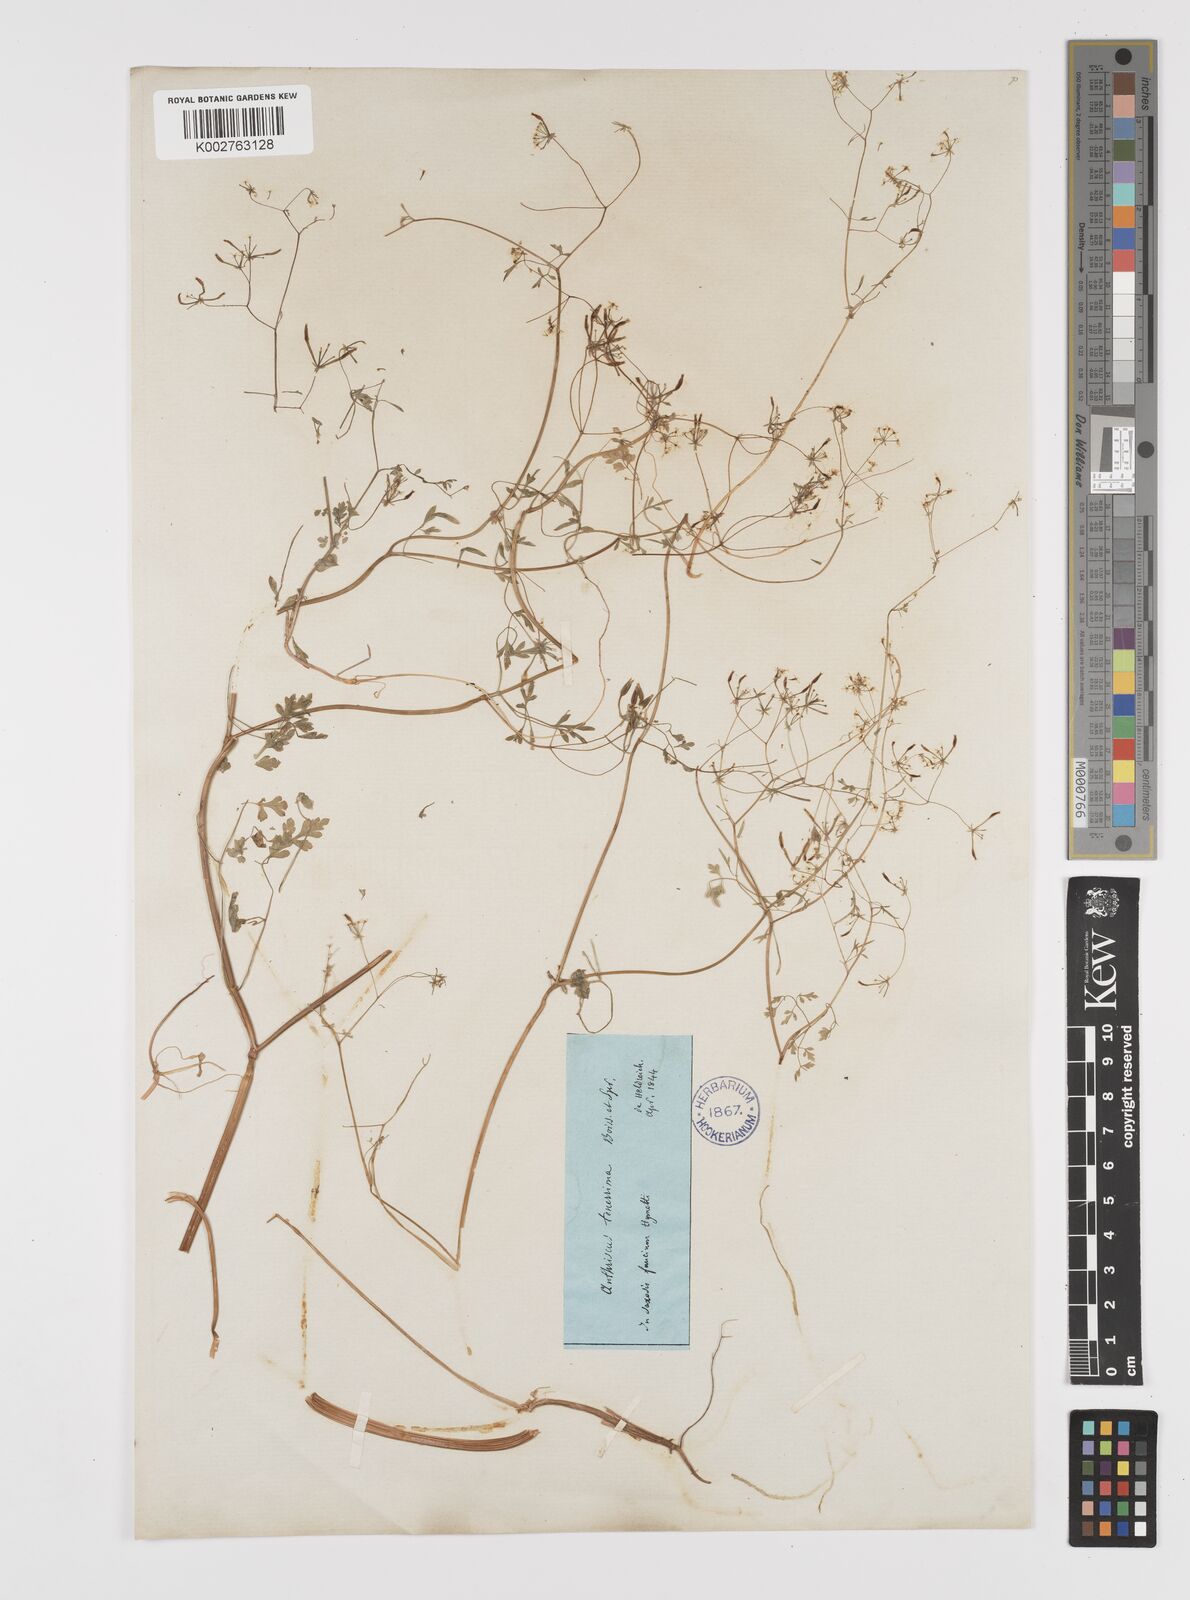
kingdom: Plantae
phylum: Tracheophyta
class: Magnoliopsida
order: Apiales
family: Apiaceae
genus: Anthriscus
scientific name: Anthriscus tenerrima
